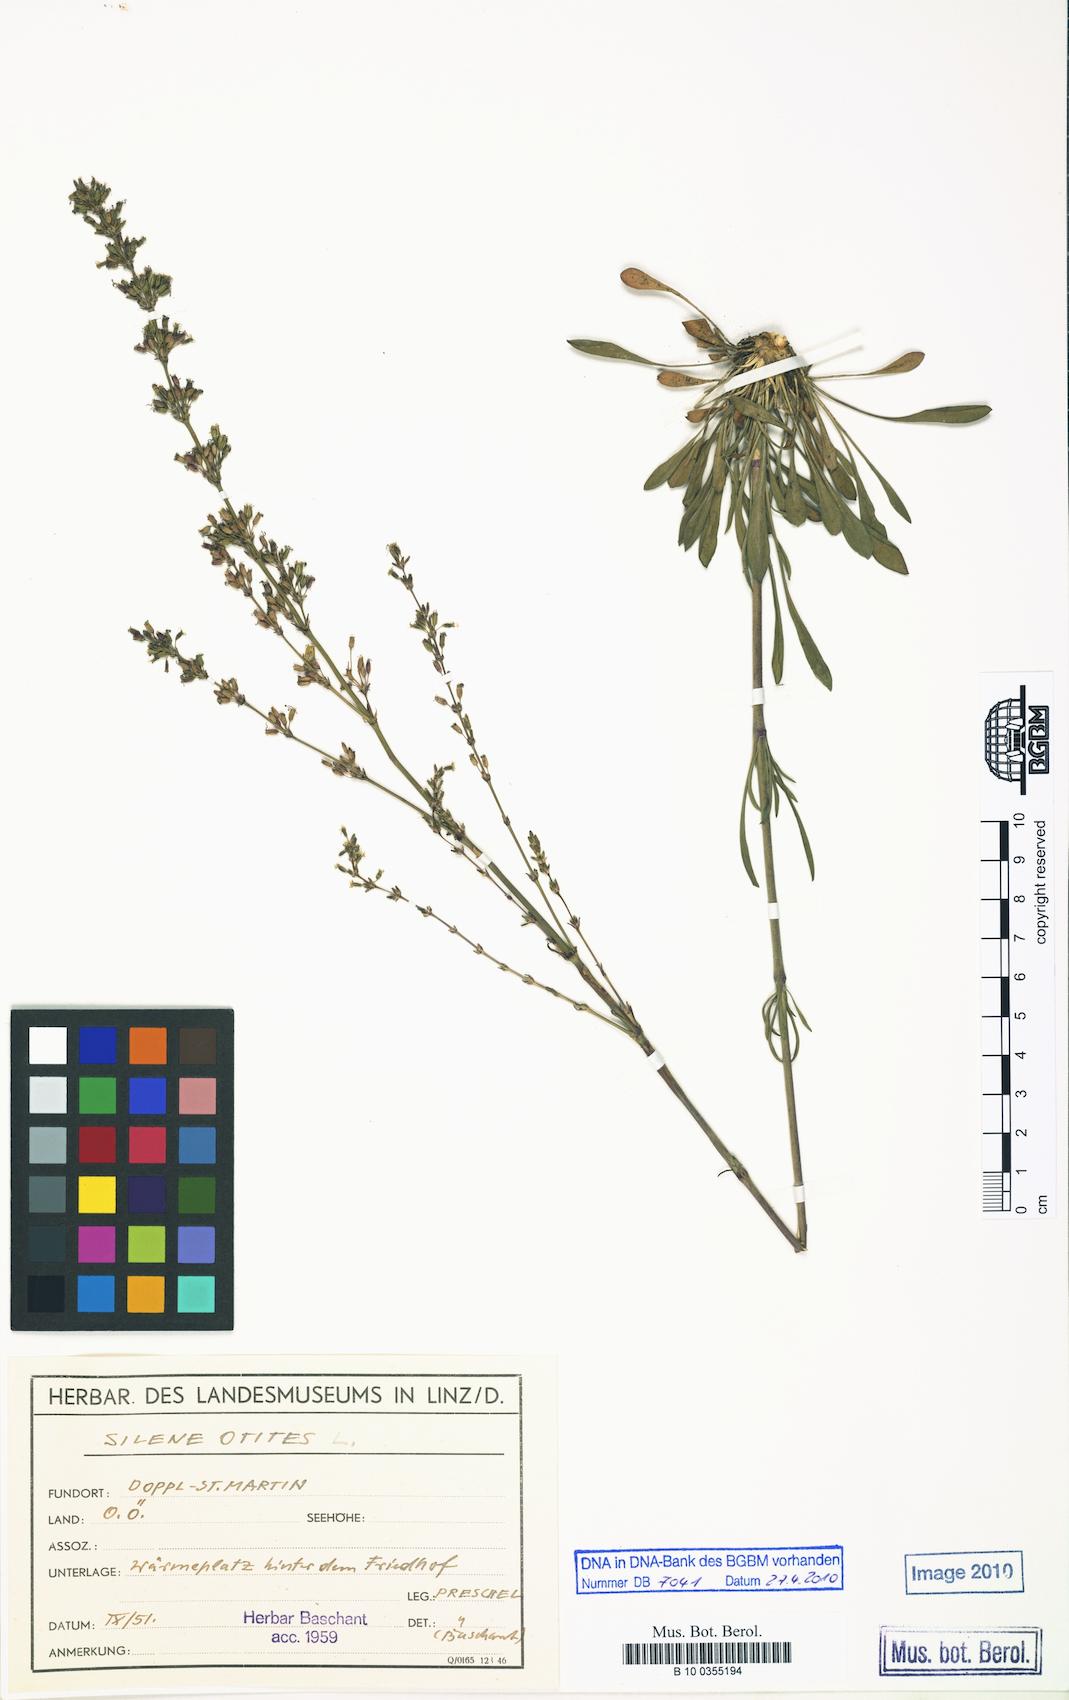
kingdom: Plantae
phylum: Tracheophyta
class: Magnoliopsida
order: Caryophyllales
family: Caryophyllaceae
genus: Silene
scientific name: Silene otites
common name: Spanish catchfly
